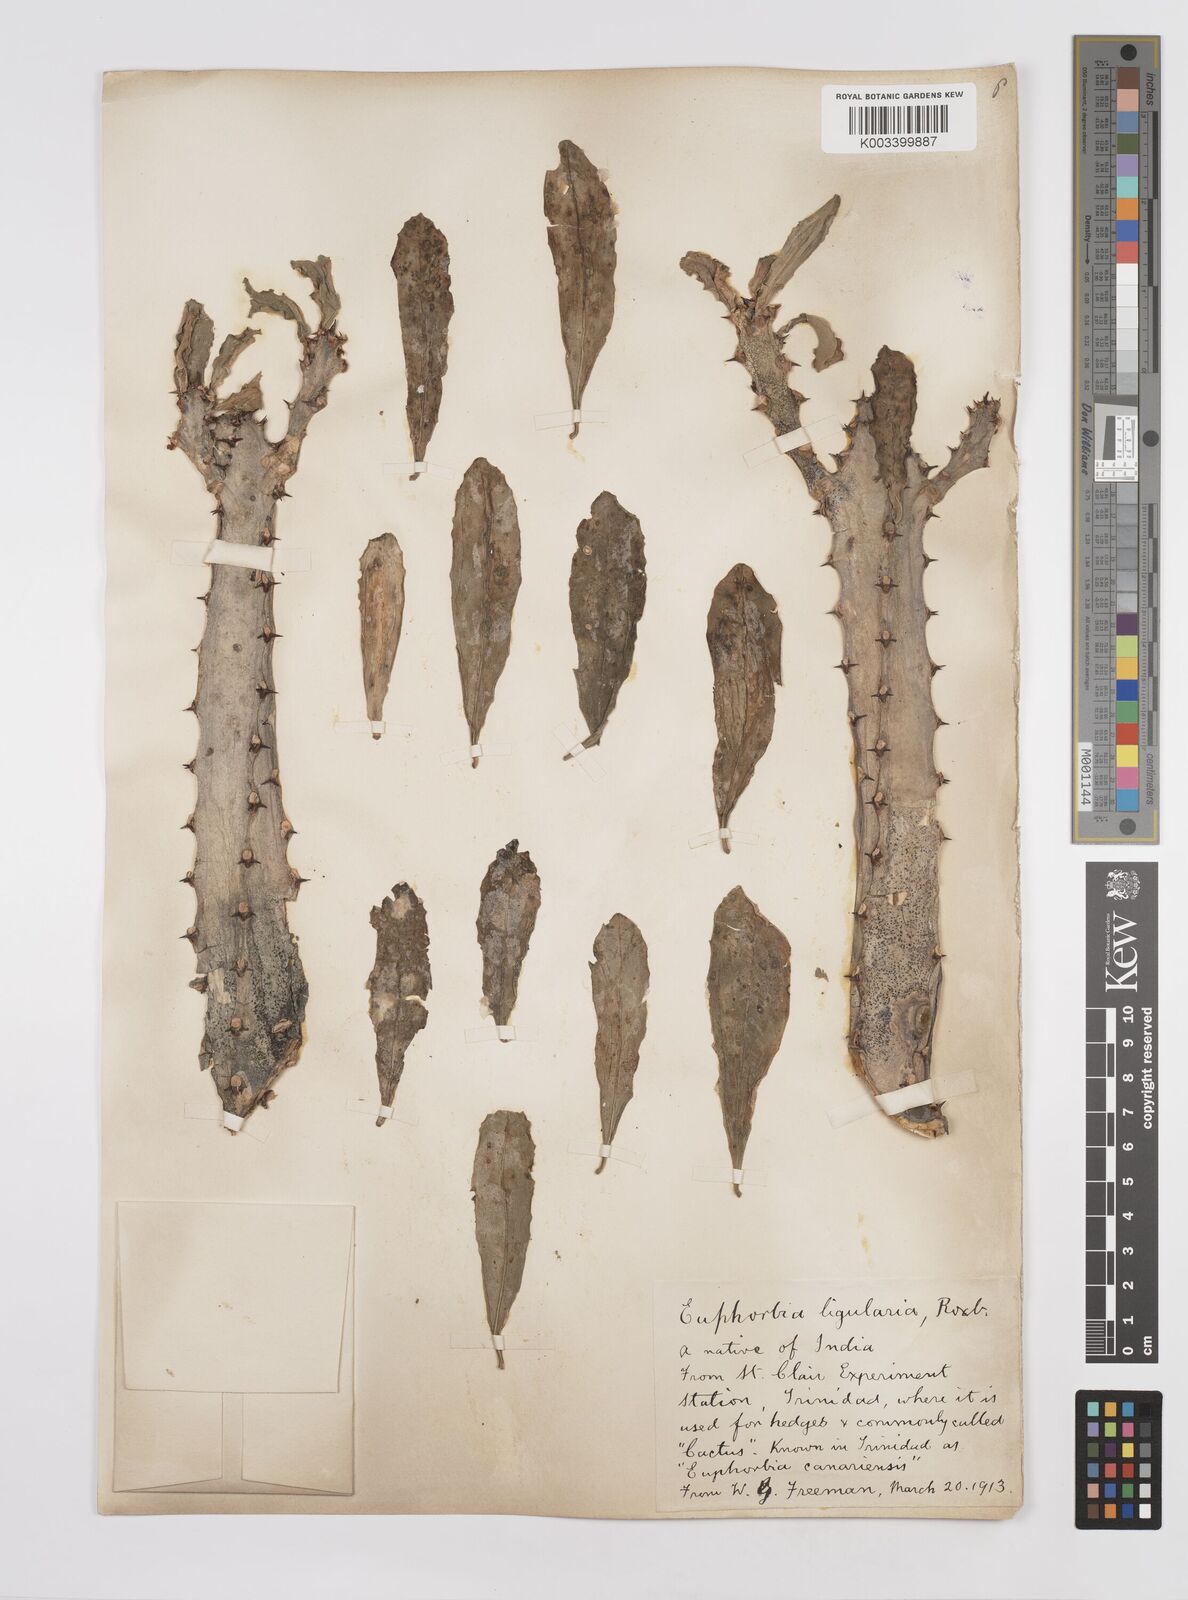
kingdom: Plantae
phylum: Tracheophyta
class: Magnoliopsida
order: Malpighiales
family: Euphorbiaceae
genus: Euphorbia
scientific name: Euphorbia
